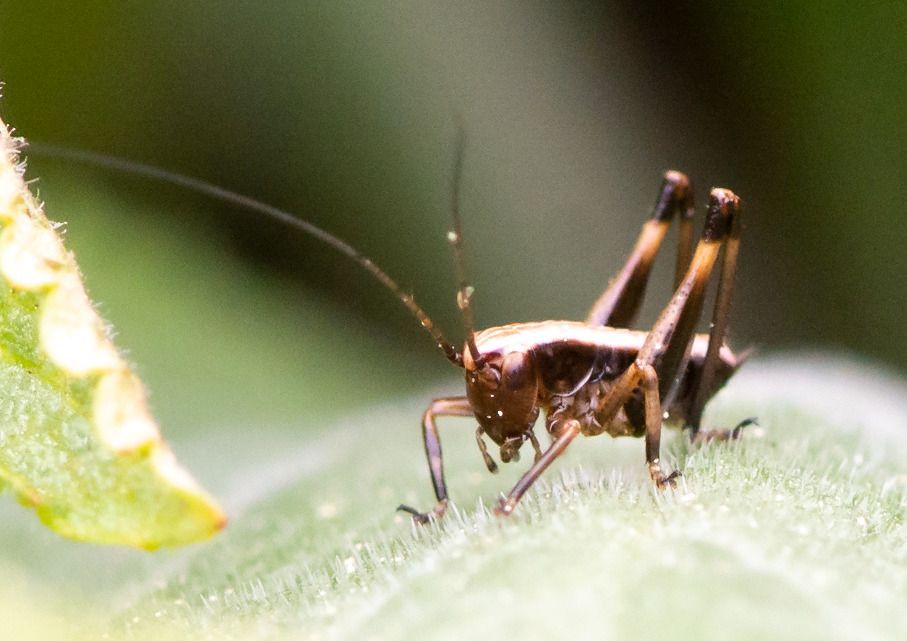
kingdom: Animalia
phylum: Arthropoda
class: Insecta
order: Orthoptera
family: Tettigoniidae
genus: Pholidoptera
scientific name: Pholidoptera griseoaptera
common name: Buskgræshoppe
